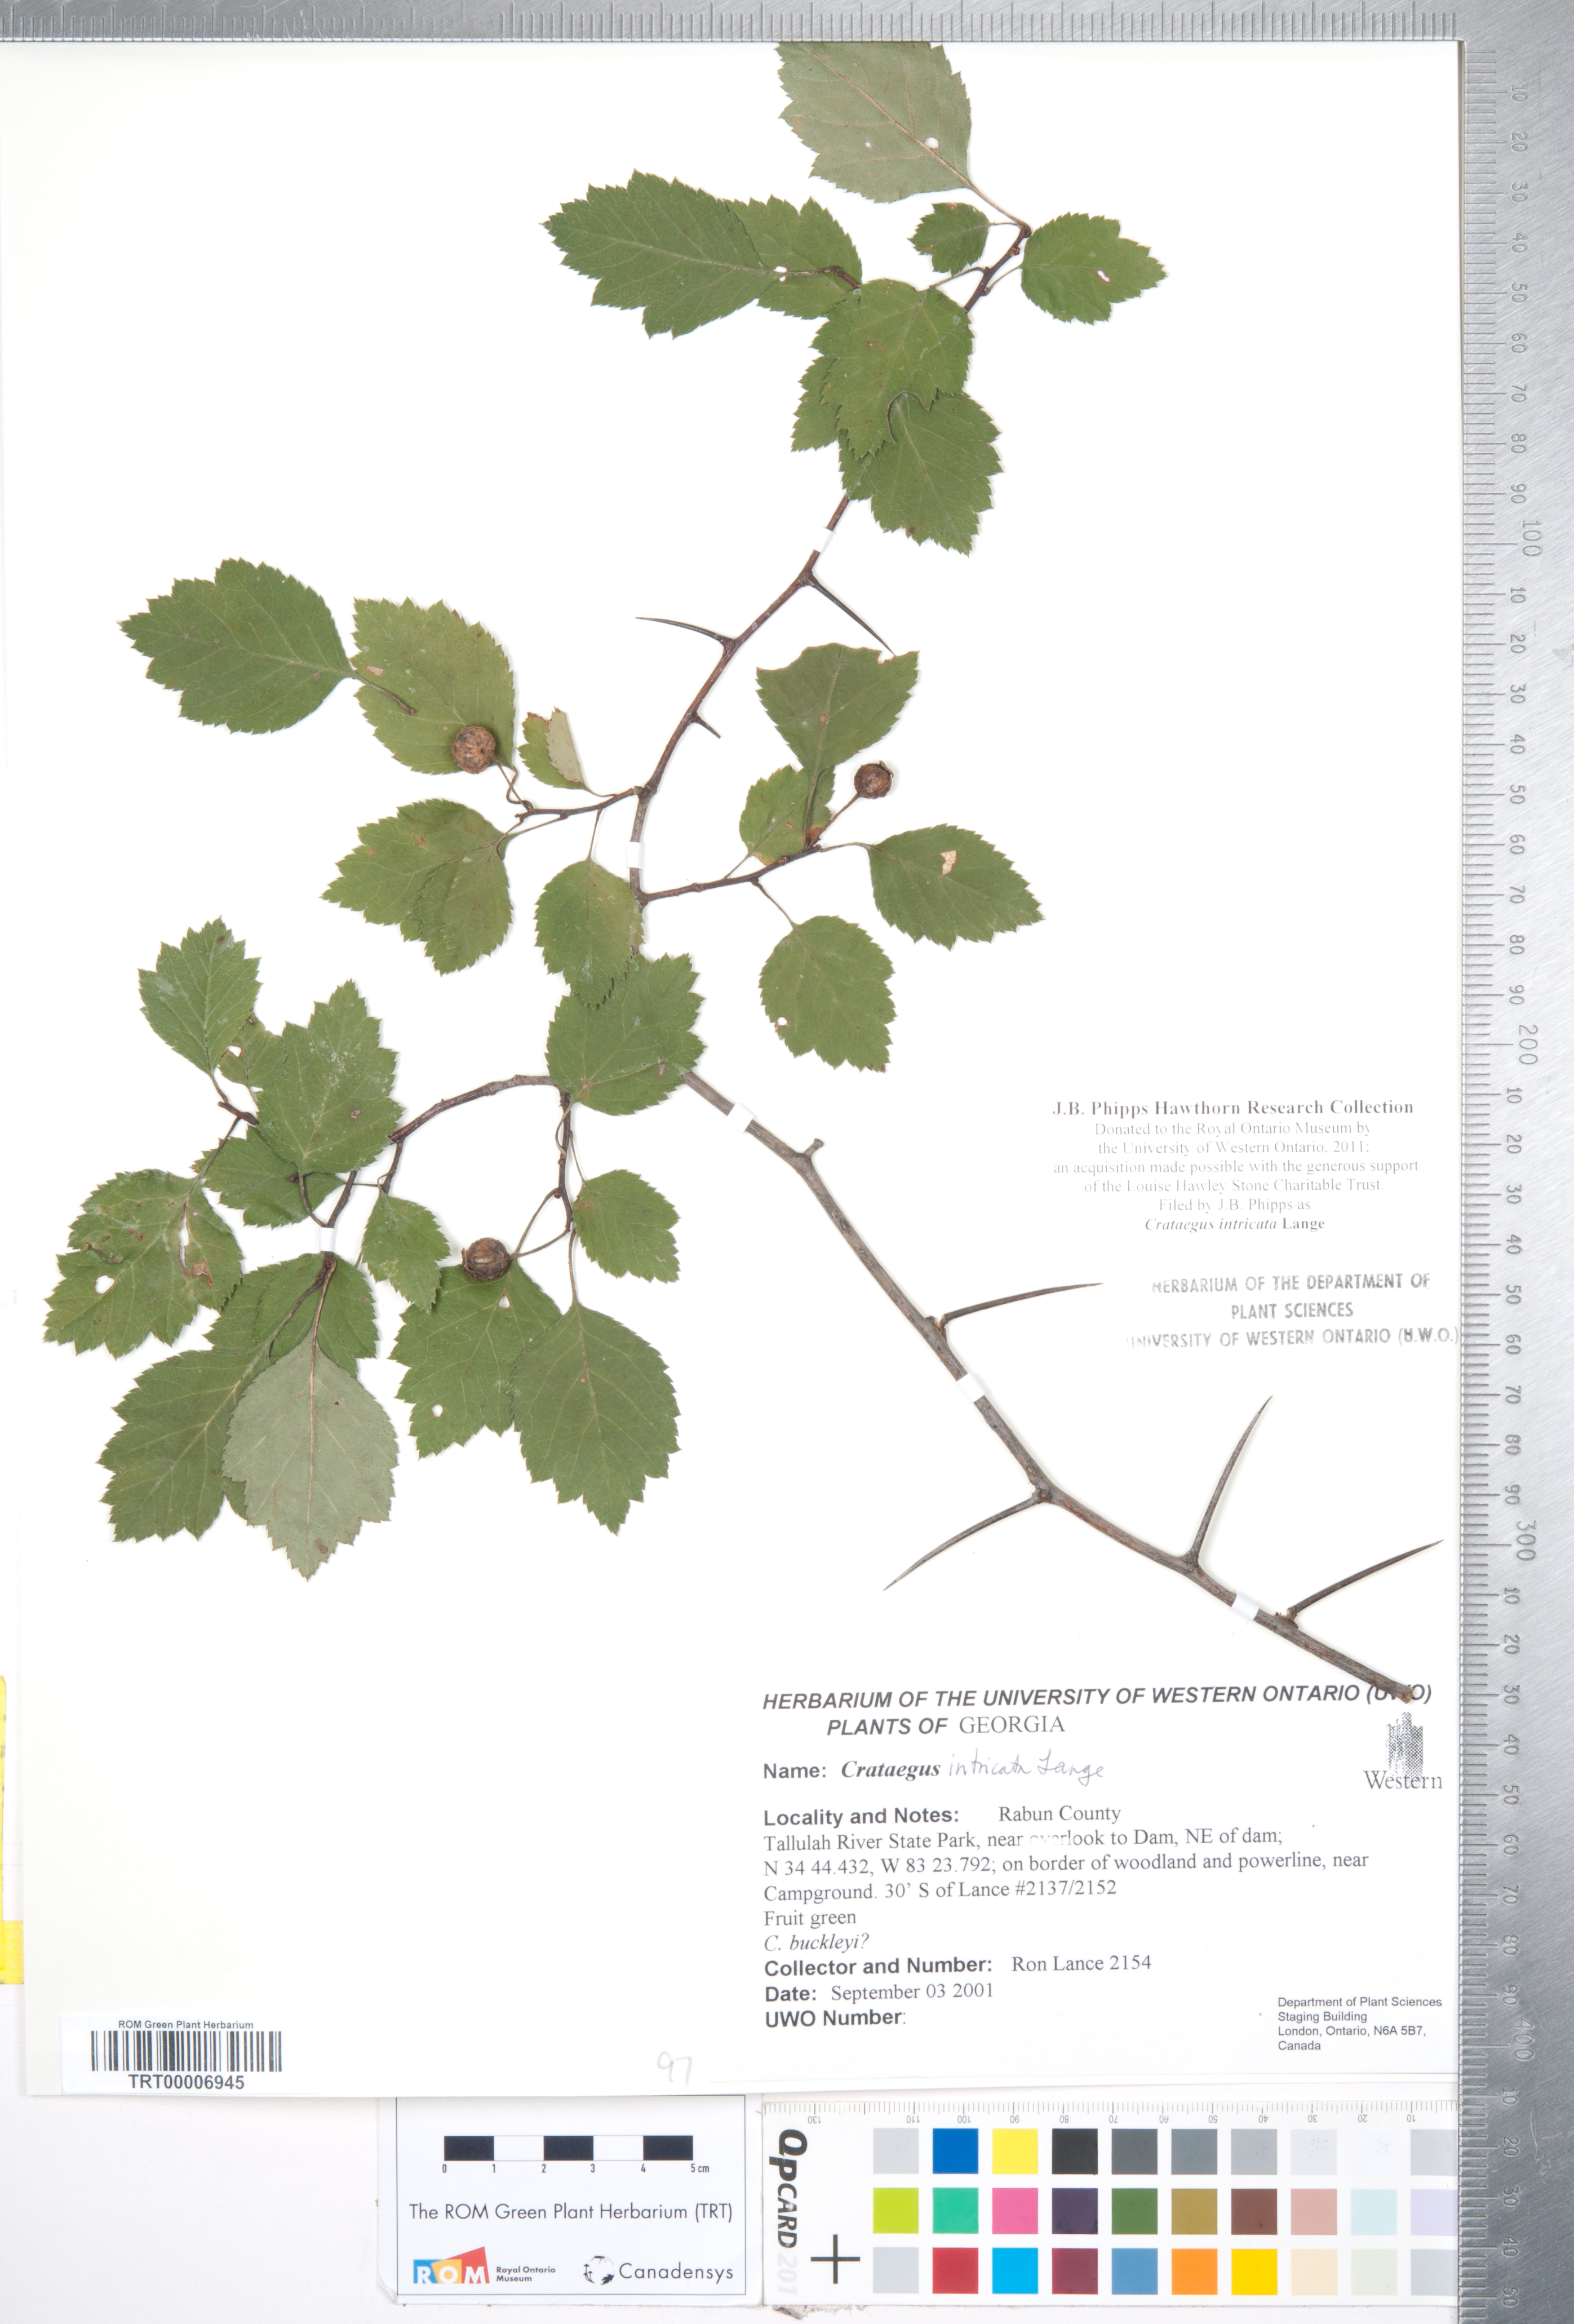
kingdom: Plantae
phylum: Tracheophyta
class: Magnoliopsida
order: Rosales
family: Rosaceae
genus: Crataegus
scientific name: Crataegus intricata
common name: Biltmore hawthorn
